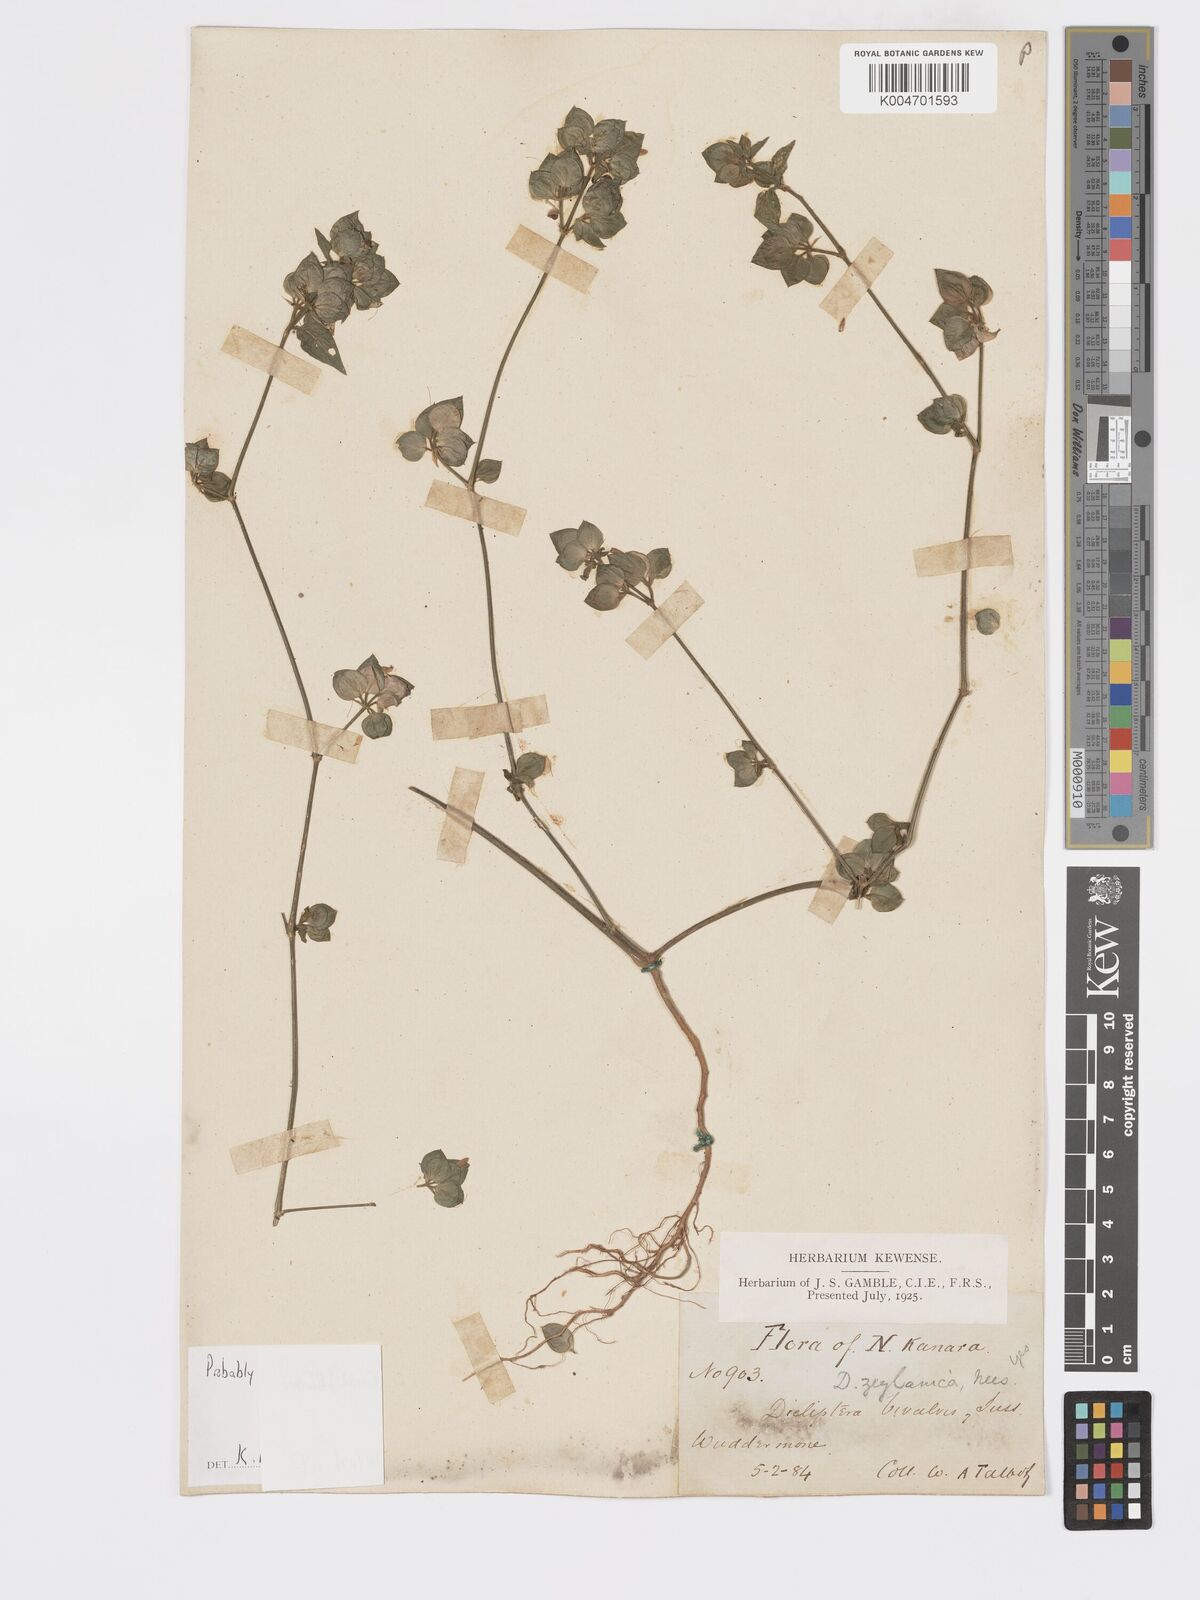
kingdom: Plantae
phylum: Tracheophyta
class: Magnoliopsida
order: Lamiales
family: Acanthaceae
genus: Dicliptera
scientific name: Dicliptera foetida
